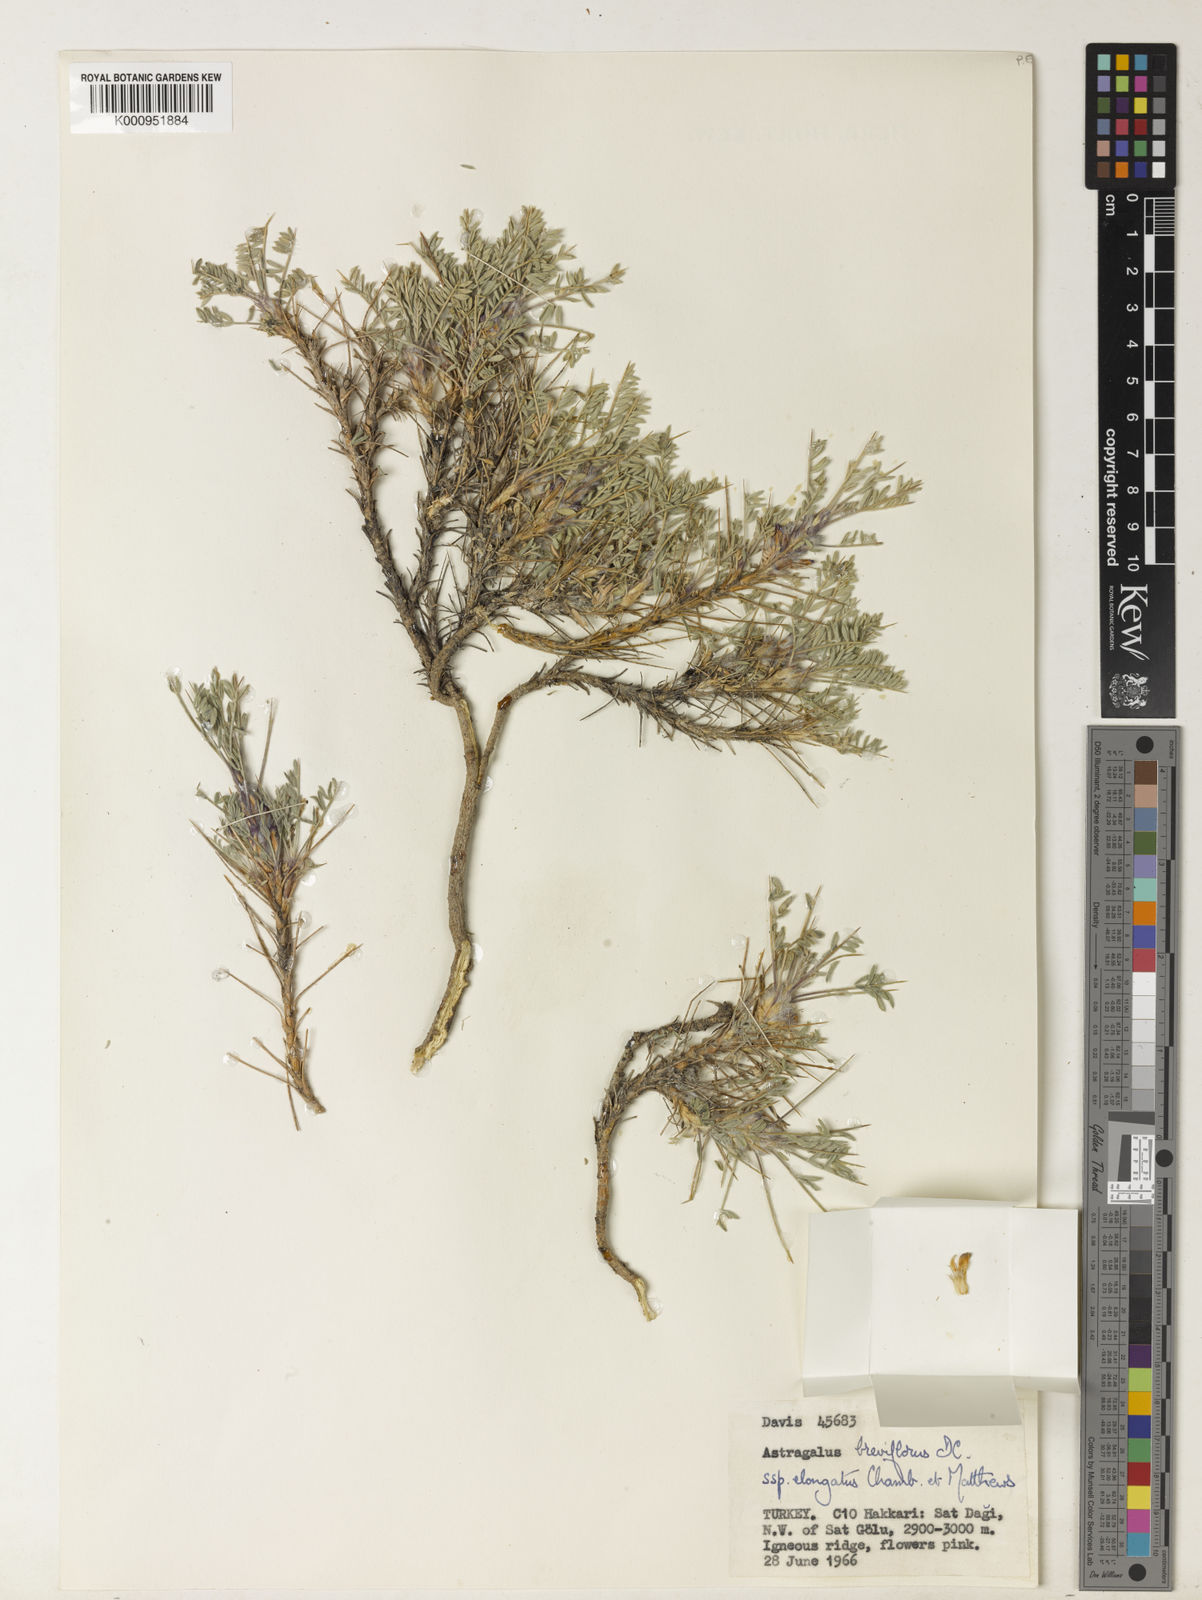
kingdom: Plantae
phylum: Tracheophyta
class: Magnoliopsida
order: Fabales
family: Fabaceae
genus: Astragalus
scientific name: Astragalus breviflorus
